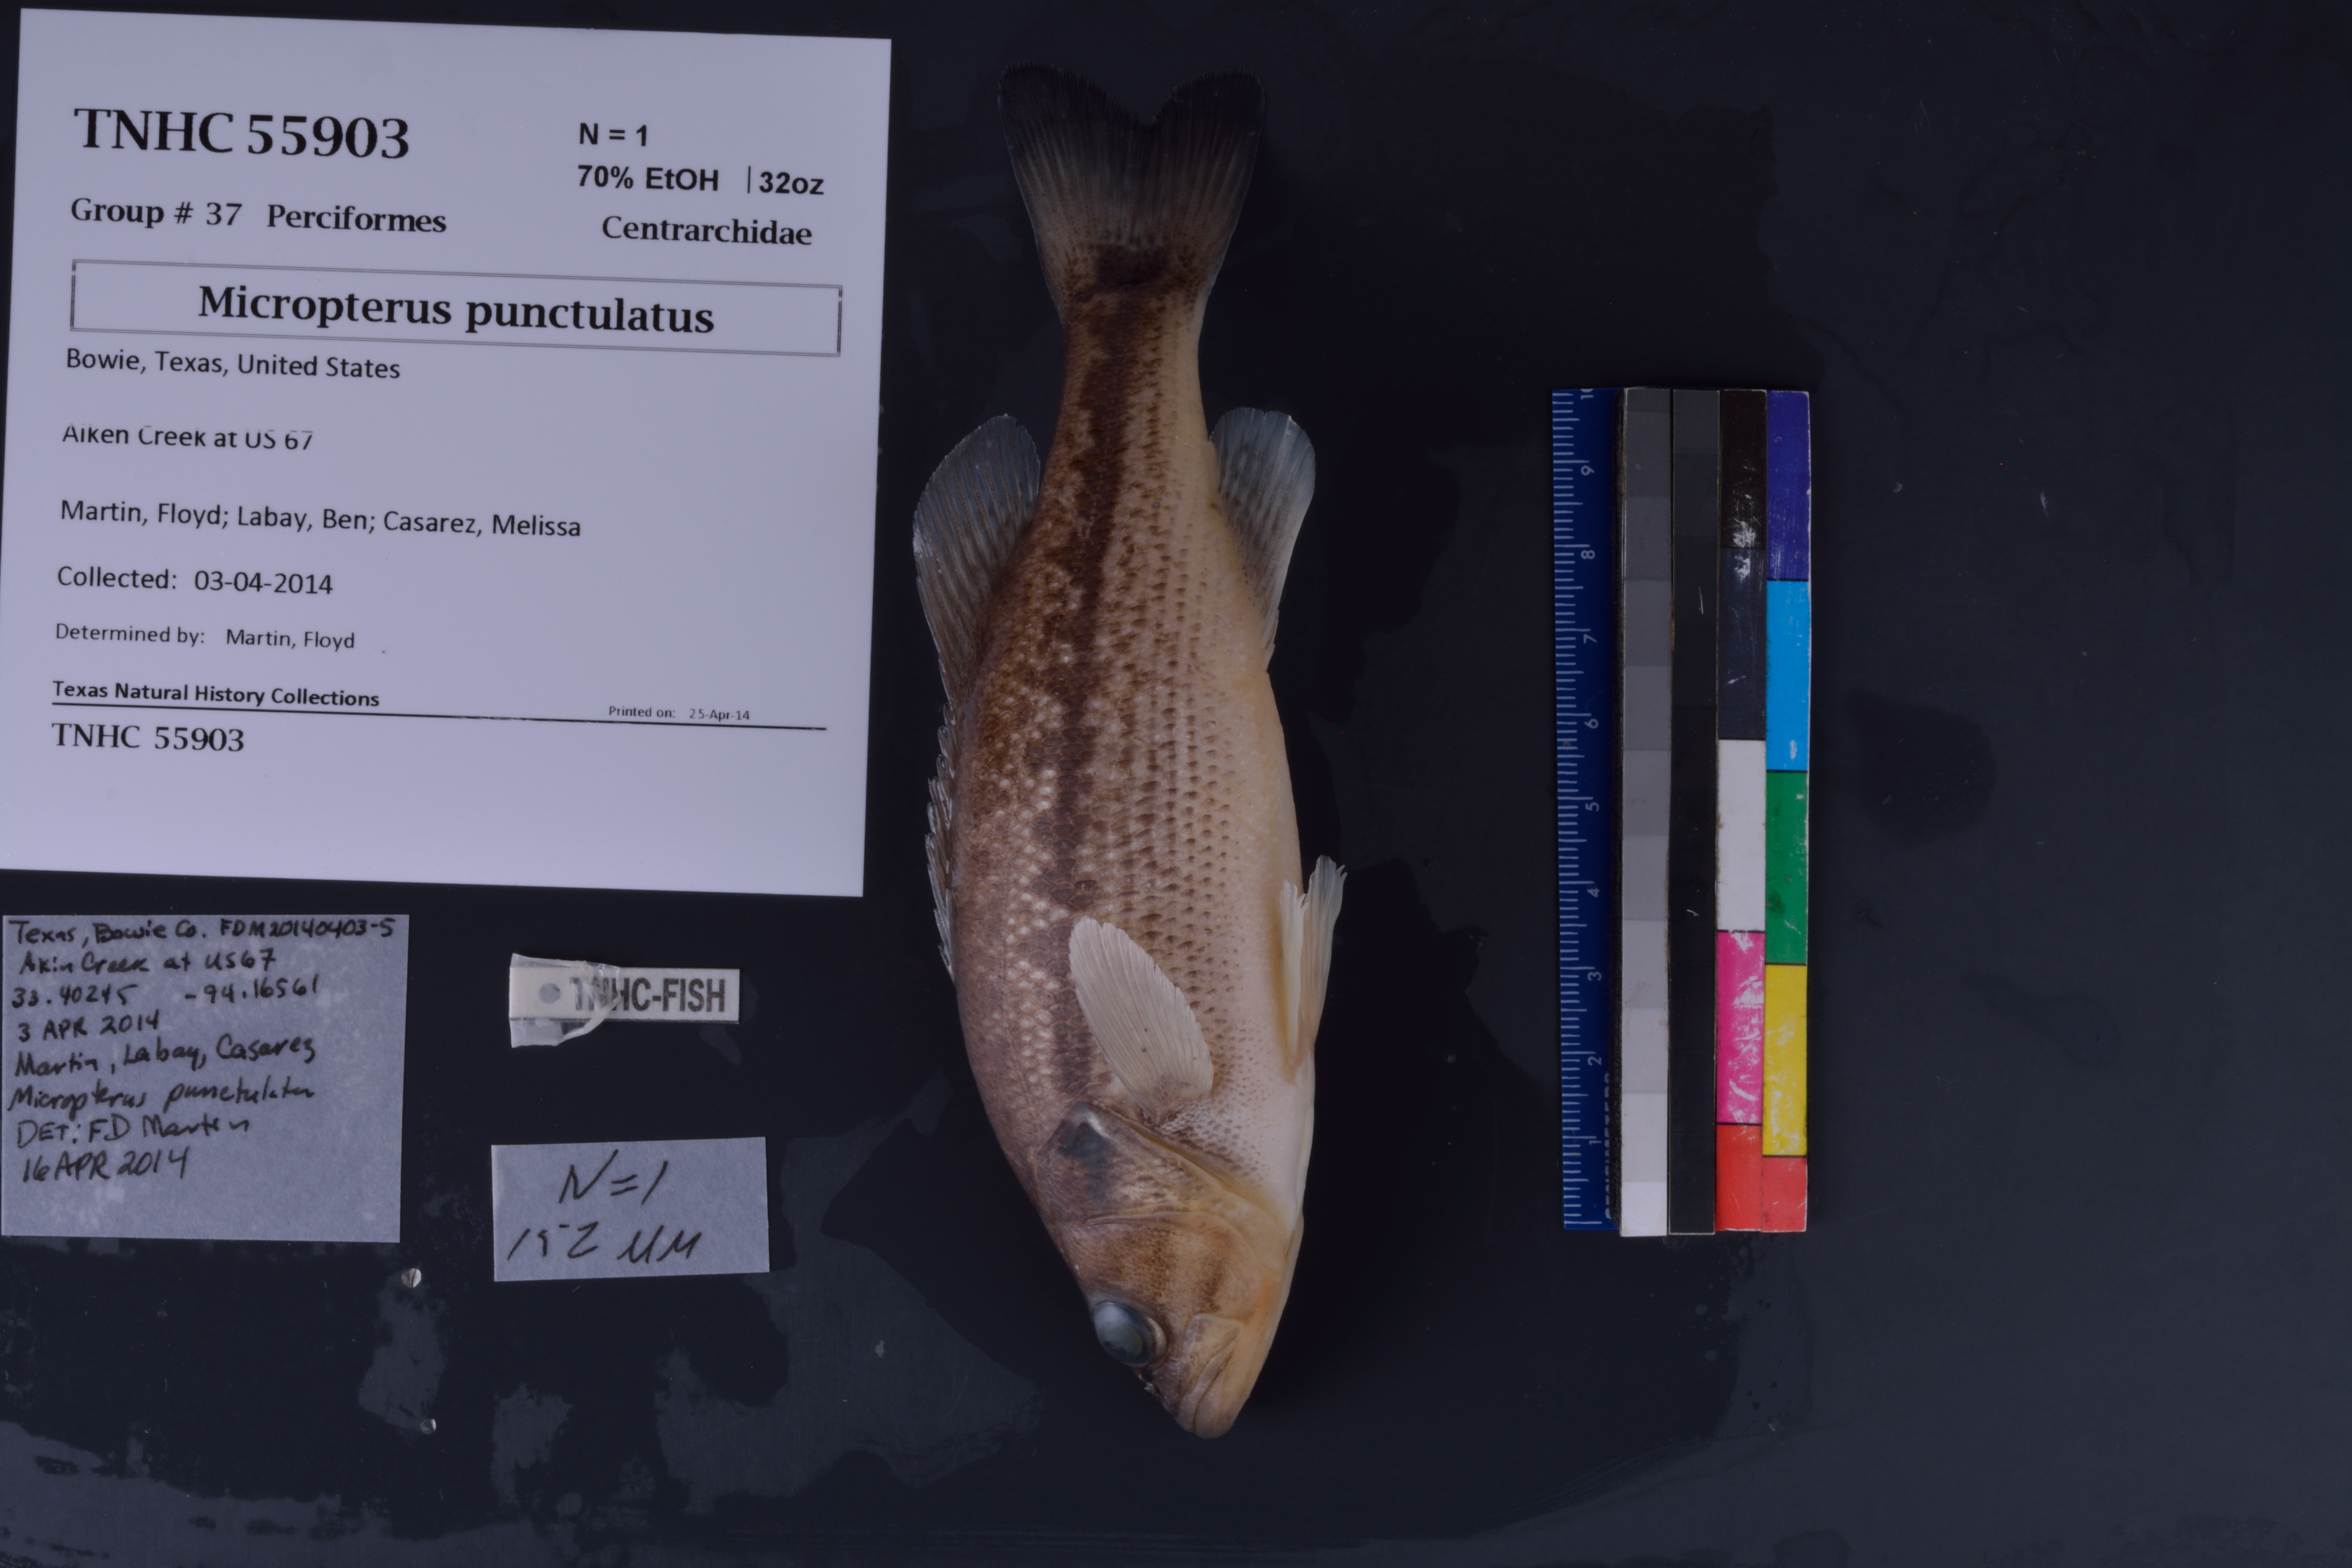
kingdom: Animalia
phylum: Chordata
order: Perciformes
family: Centrarchidae
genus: Micropterus
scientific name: Micropterus punctulatus
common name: Spotted bass
